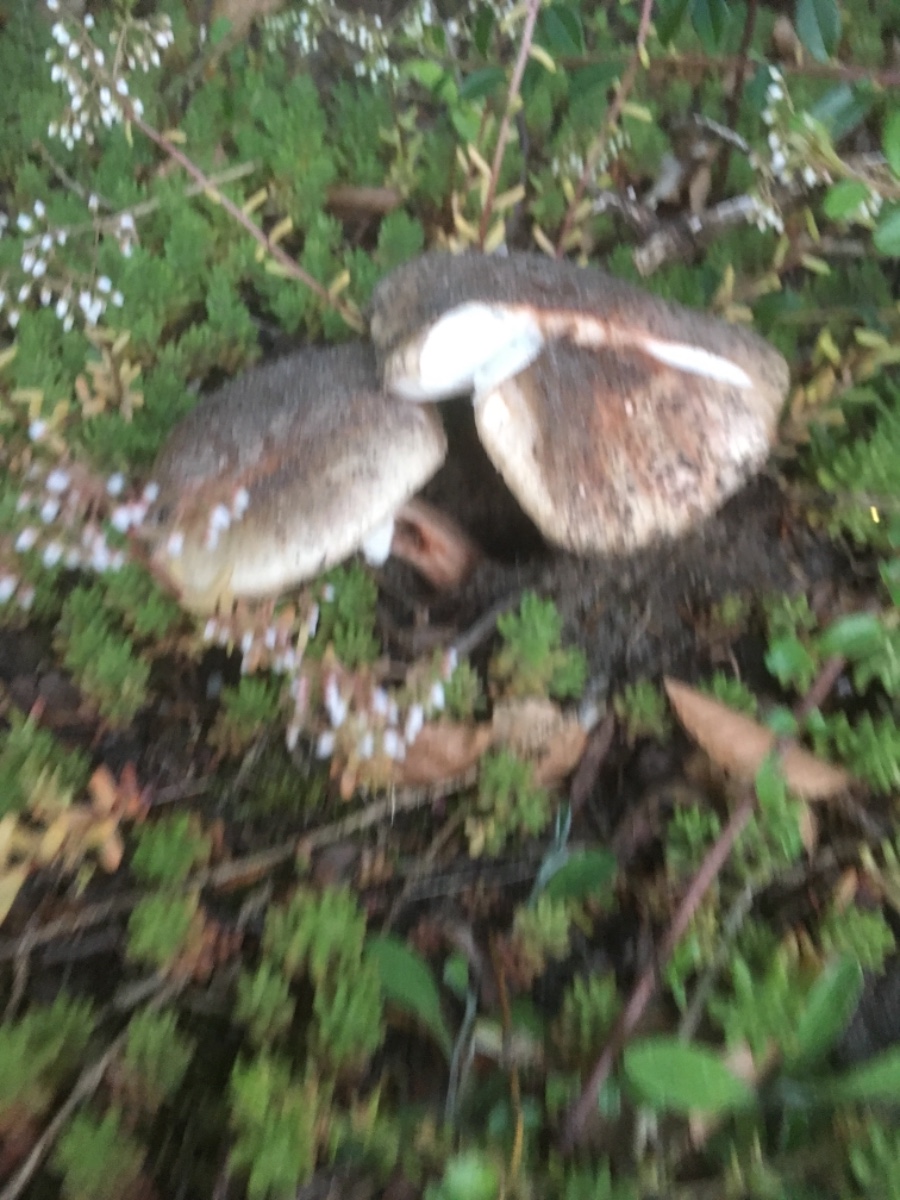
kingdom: Fungi
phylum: Basidiomycota
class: Agaricomycetes
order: Agaricales
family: Amanitaceae
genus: Amanita
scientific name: Amanita rubescens
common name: rødmende fluesvamp
